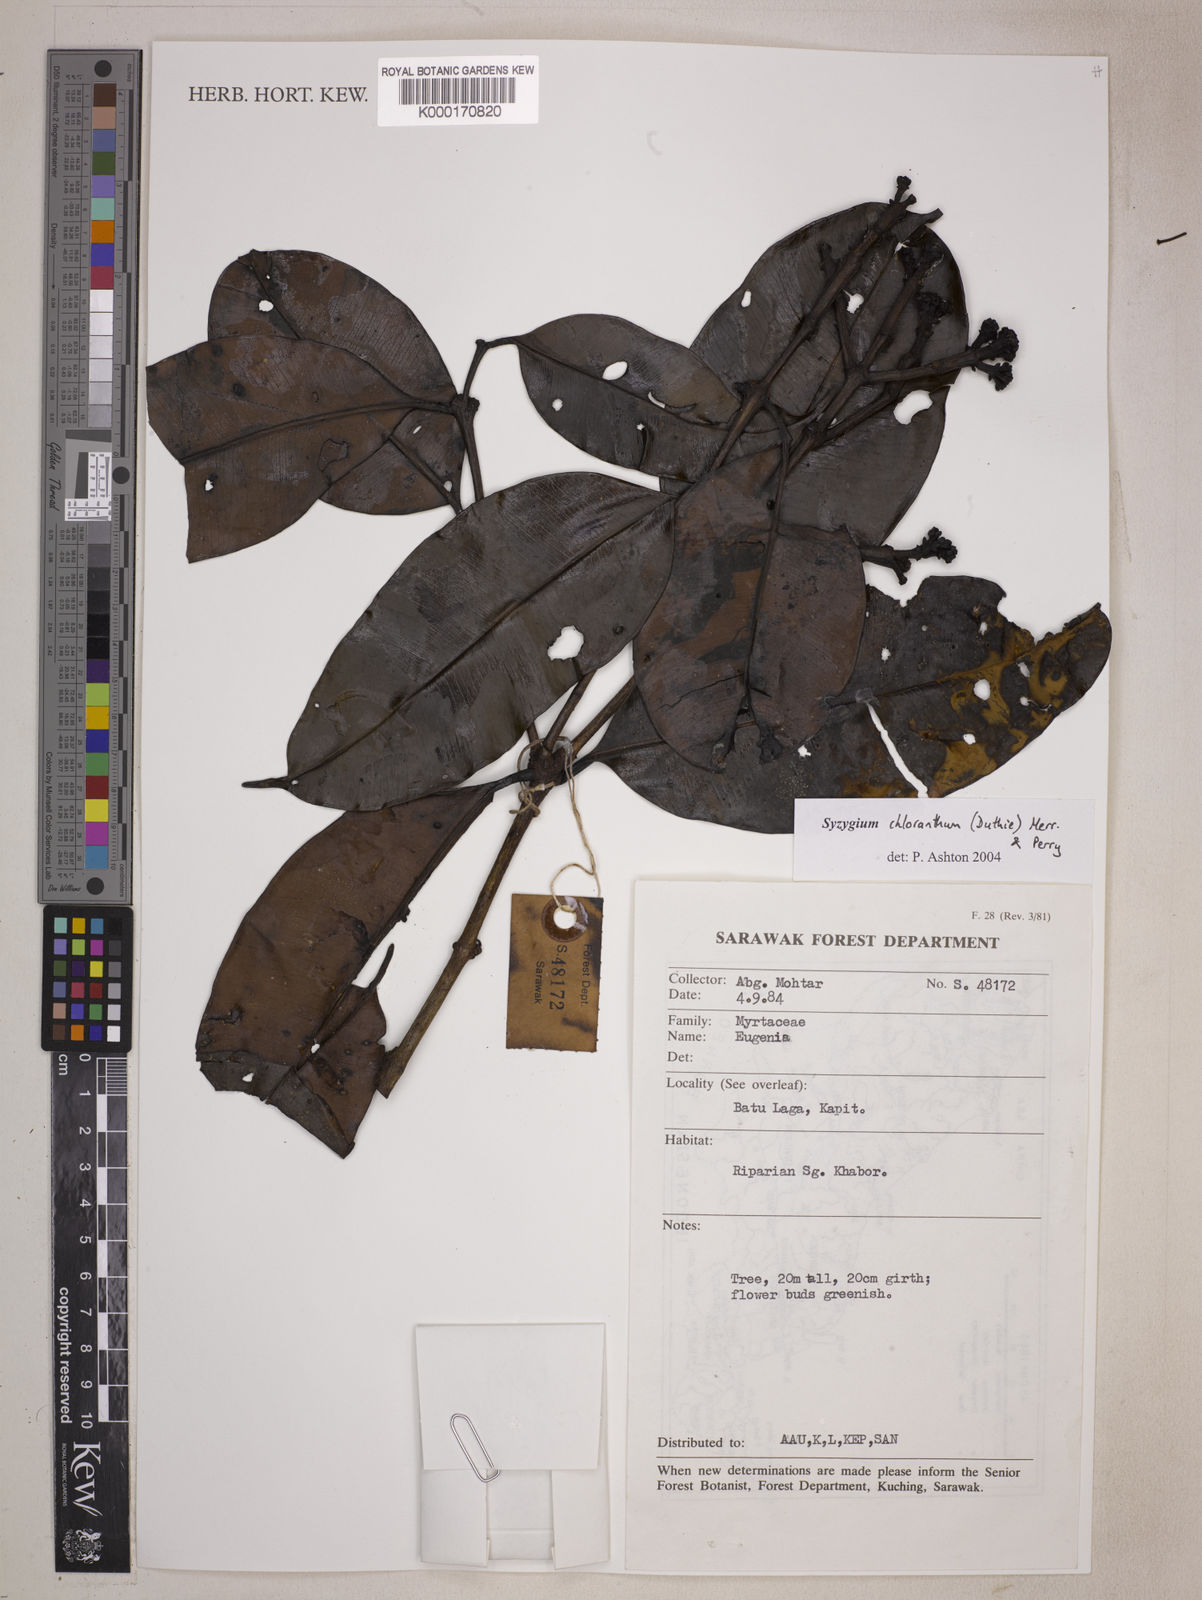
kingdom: Plantae
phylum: Tracheophyta
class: Magnoliopsida
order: Myrtales
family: Myrtaceae
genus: Syzygium
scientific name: Syzygium chloranthum
